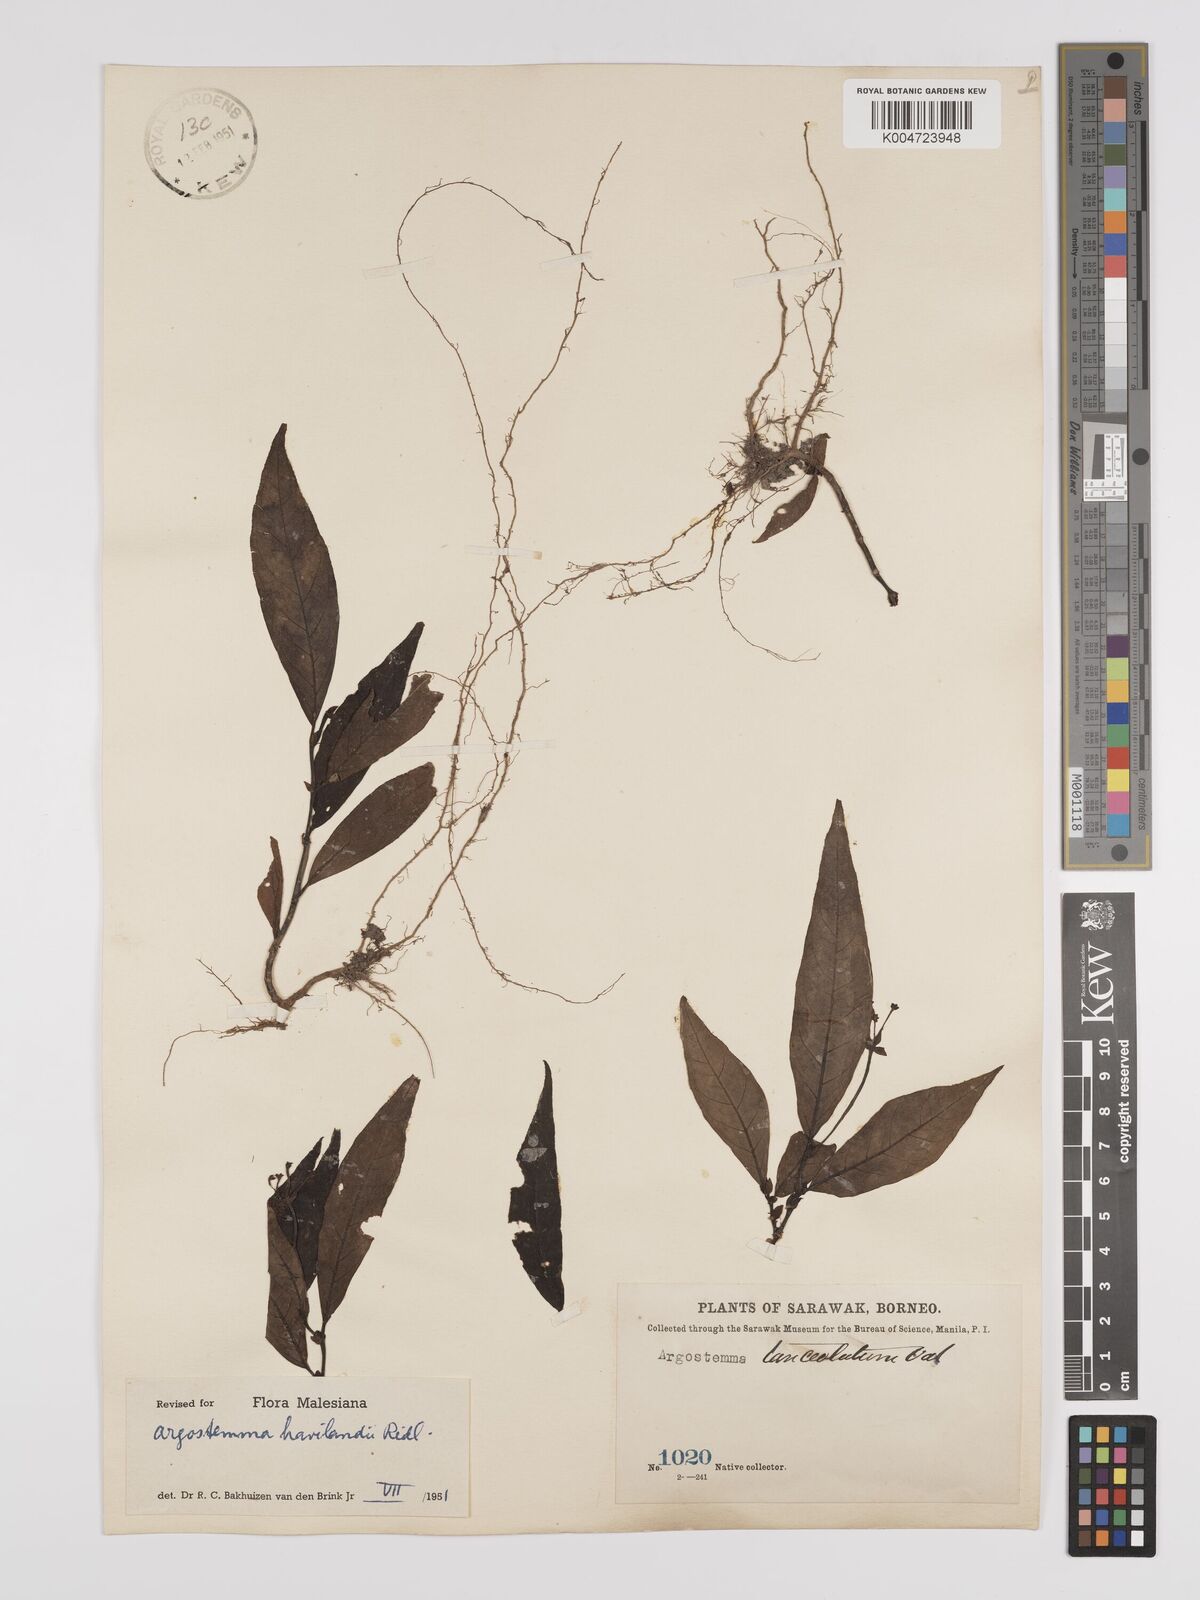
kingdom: Plantae
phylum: Tracheophyta
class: Magnoliopsida
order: Gentianales
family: Rubiaceae
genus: Argostemma
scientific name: Argostemma havilandii
